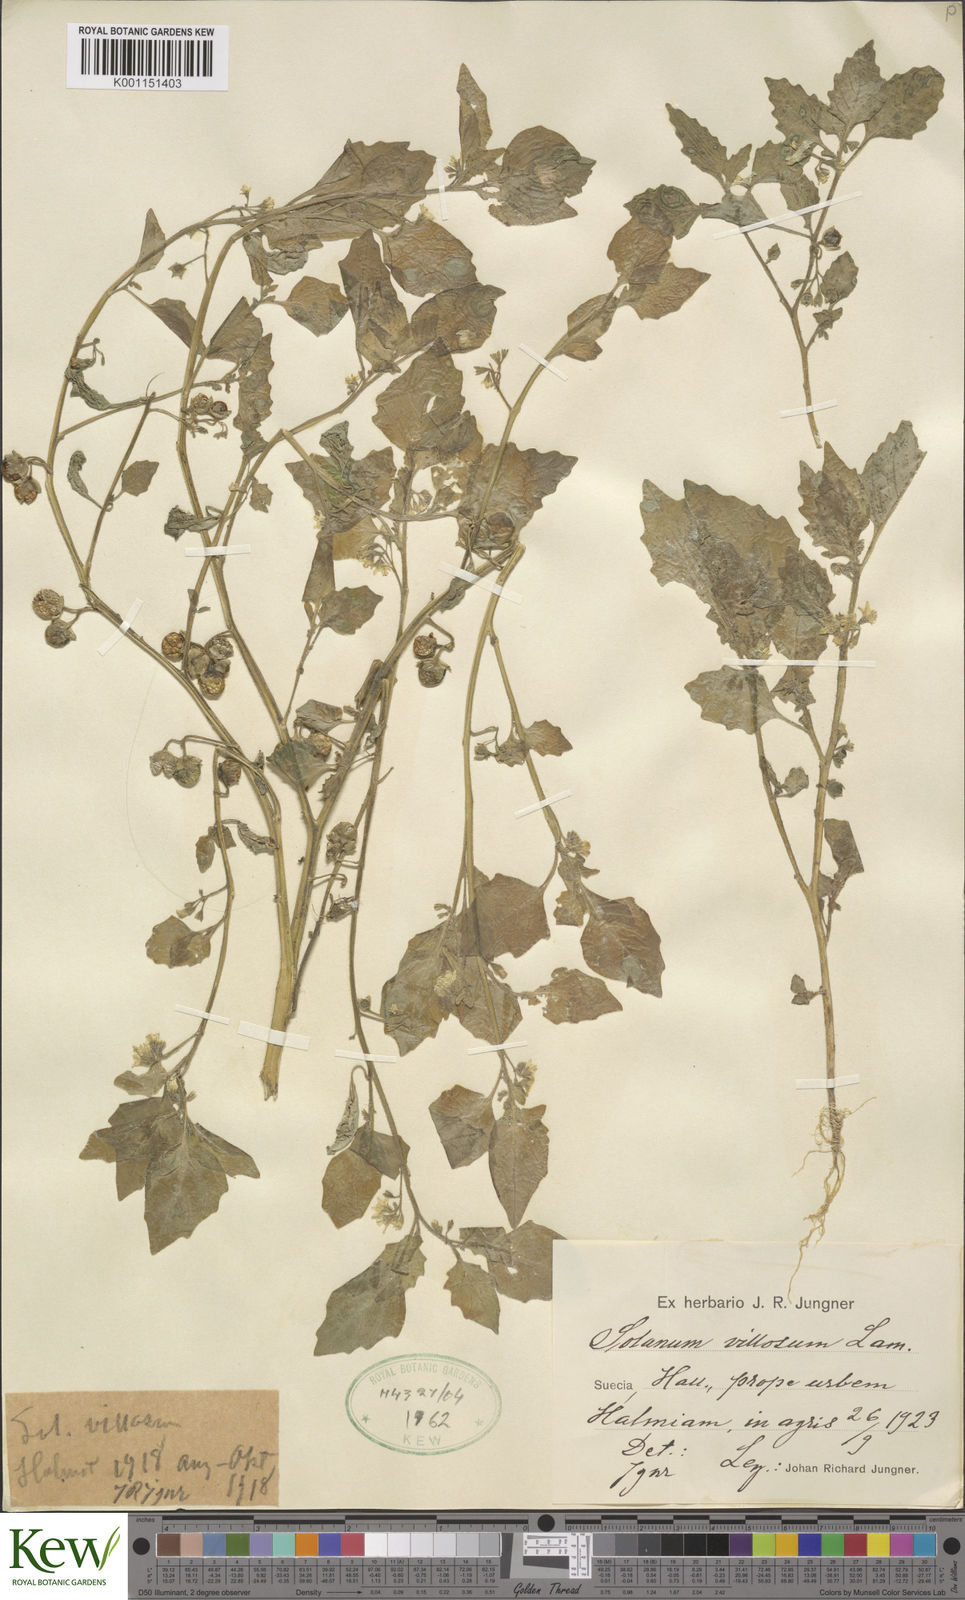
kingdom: Plantae
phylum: Tracheophyta
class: Magnoliopsida
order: Solanales
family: Solanaceae
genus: Solanum
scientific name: Solanum villosum
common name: Red nightshade
